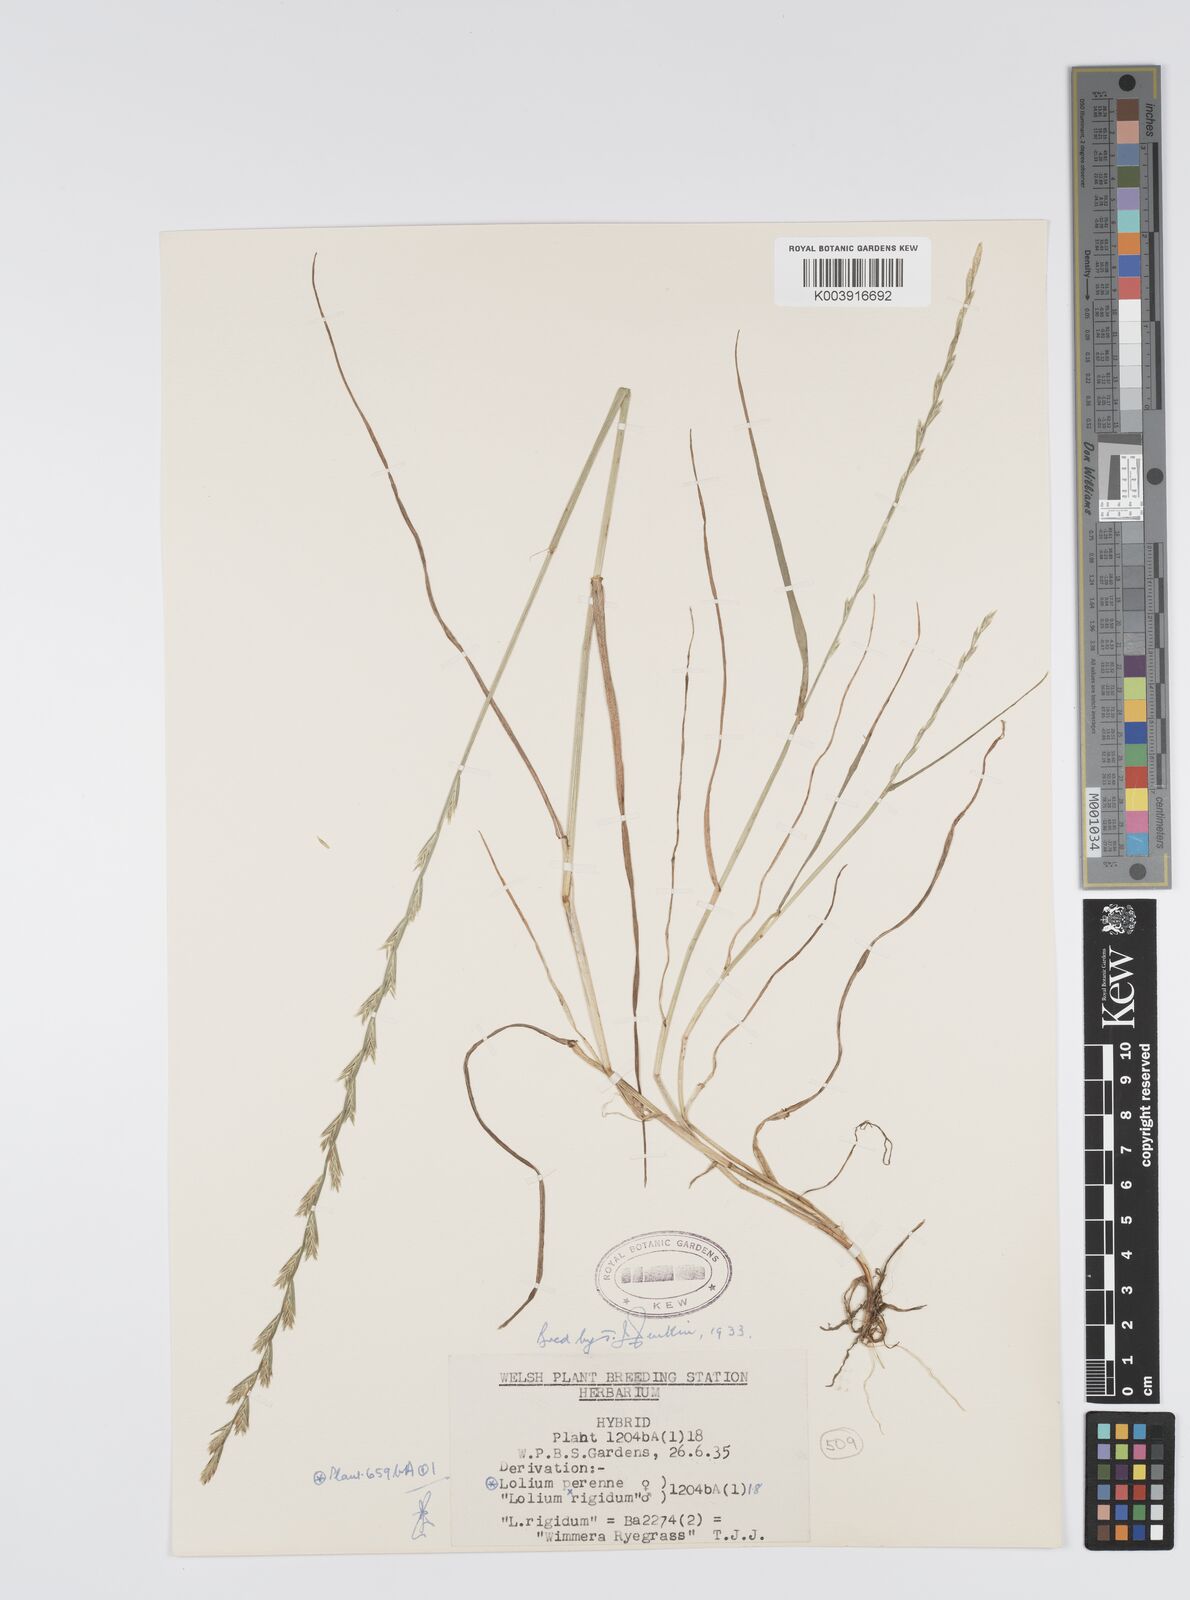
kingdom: Plantae
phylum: Tracheophyta
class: Liliopsida
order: Poales
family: Poaceae
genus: Lolium
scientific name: Lolium perenne
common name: Perennial ryegrass
